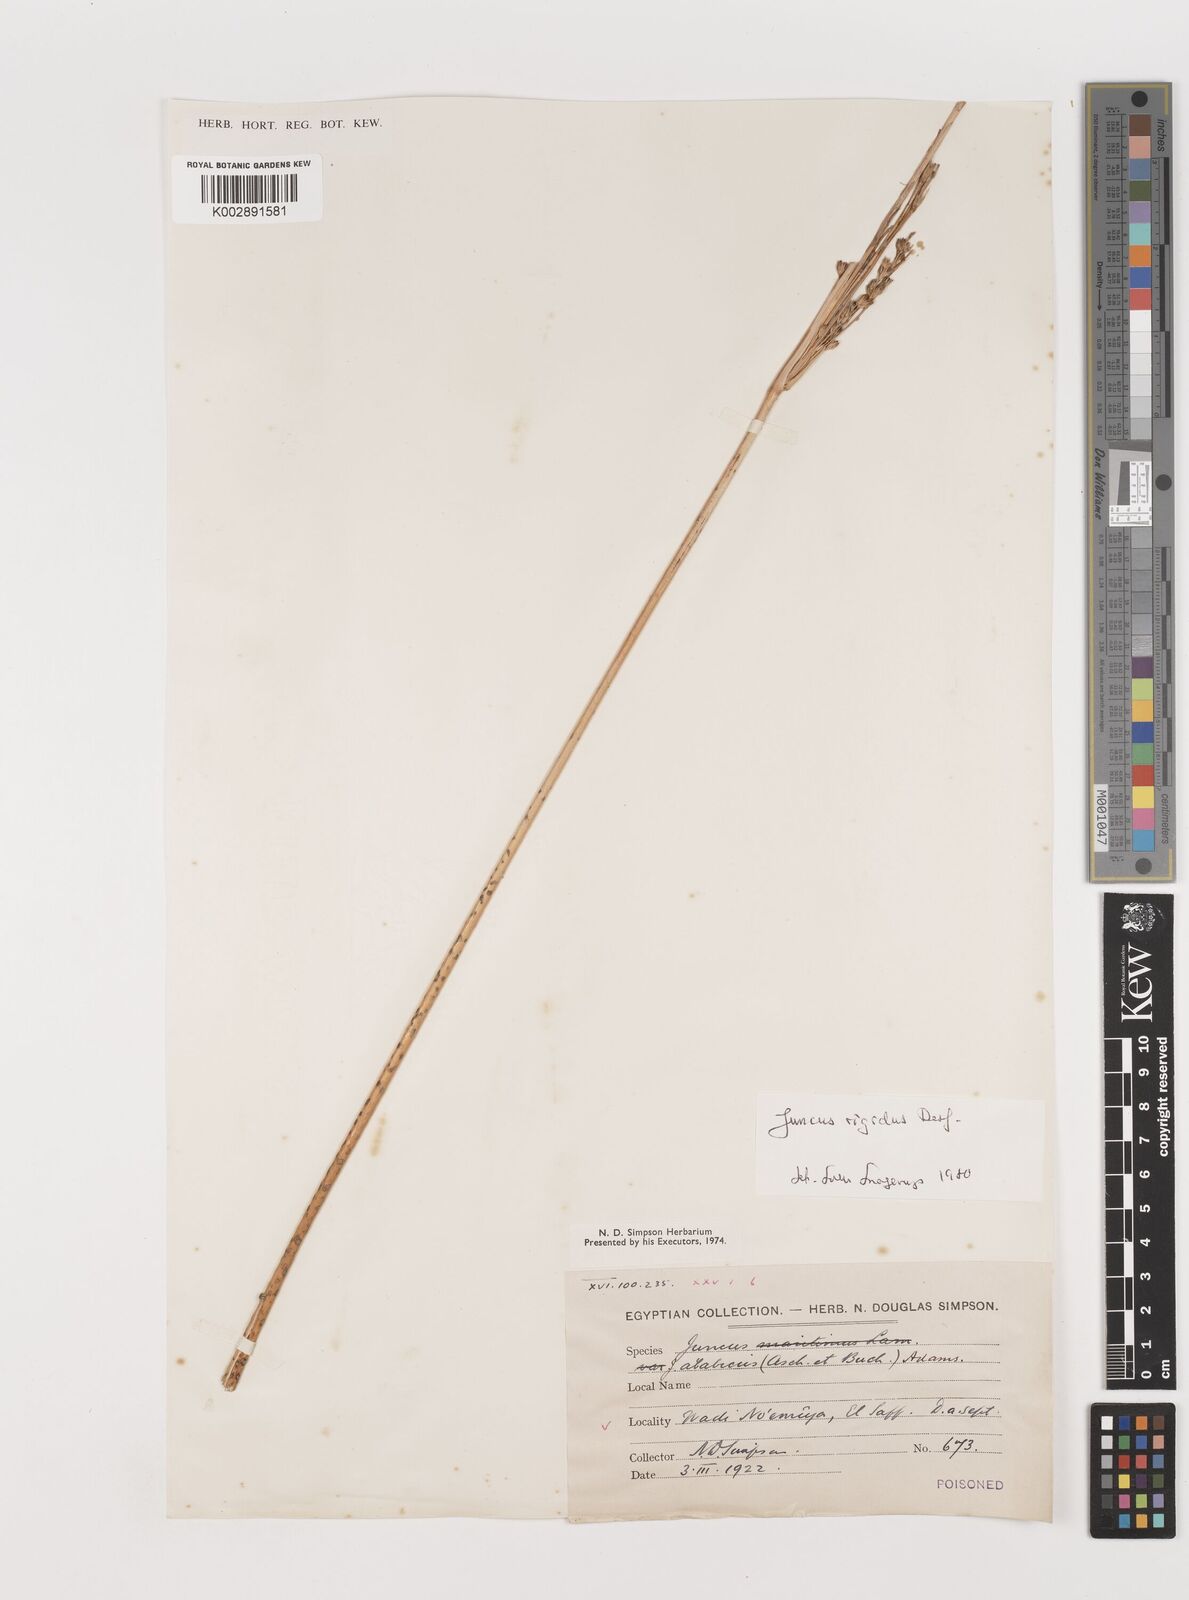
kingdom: Plantae
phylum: Tracheophyta
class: Liliopsida
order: Poales
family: Juncaceae
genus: Juncus
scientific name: Juncus rigidus
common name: Hard sea rush
